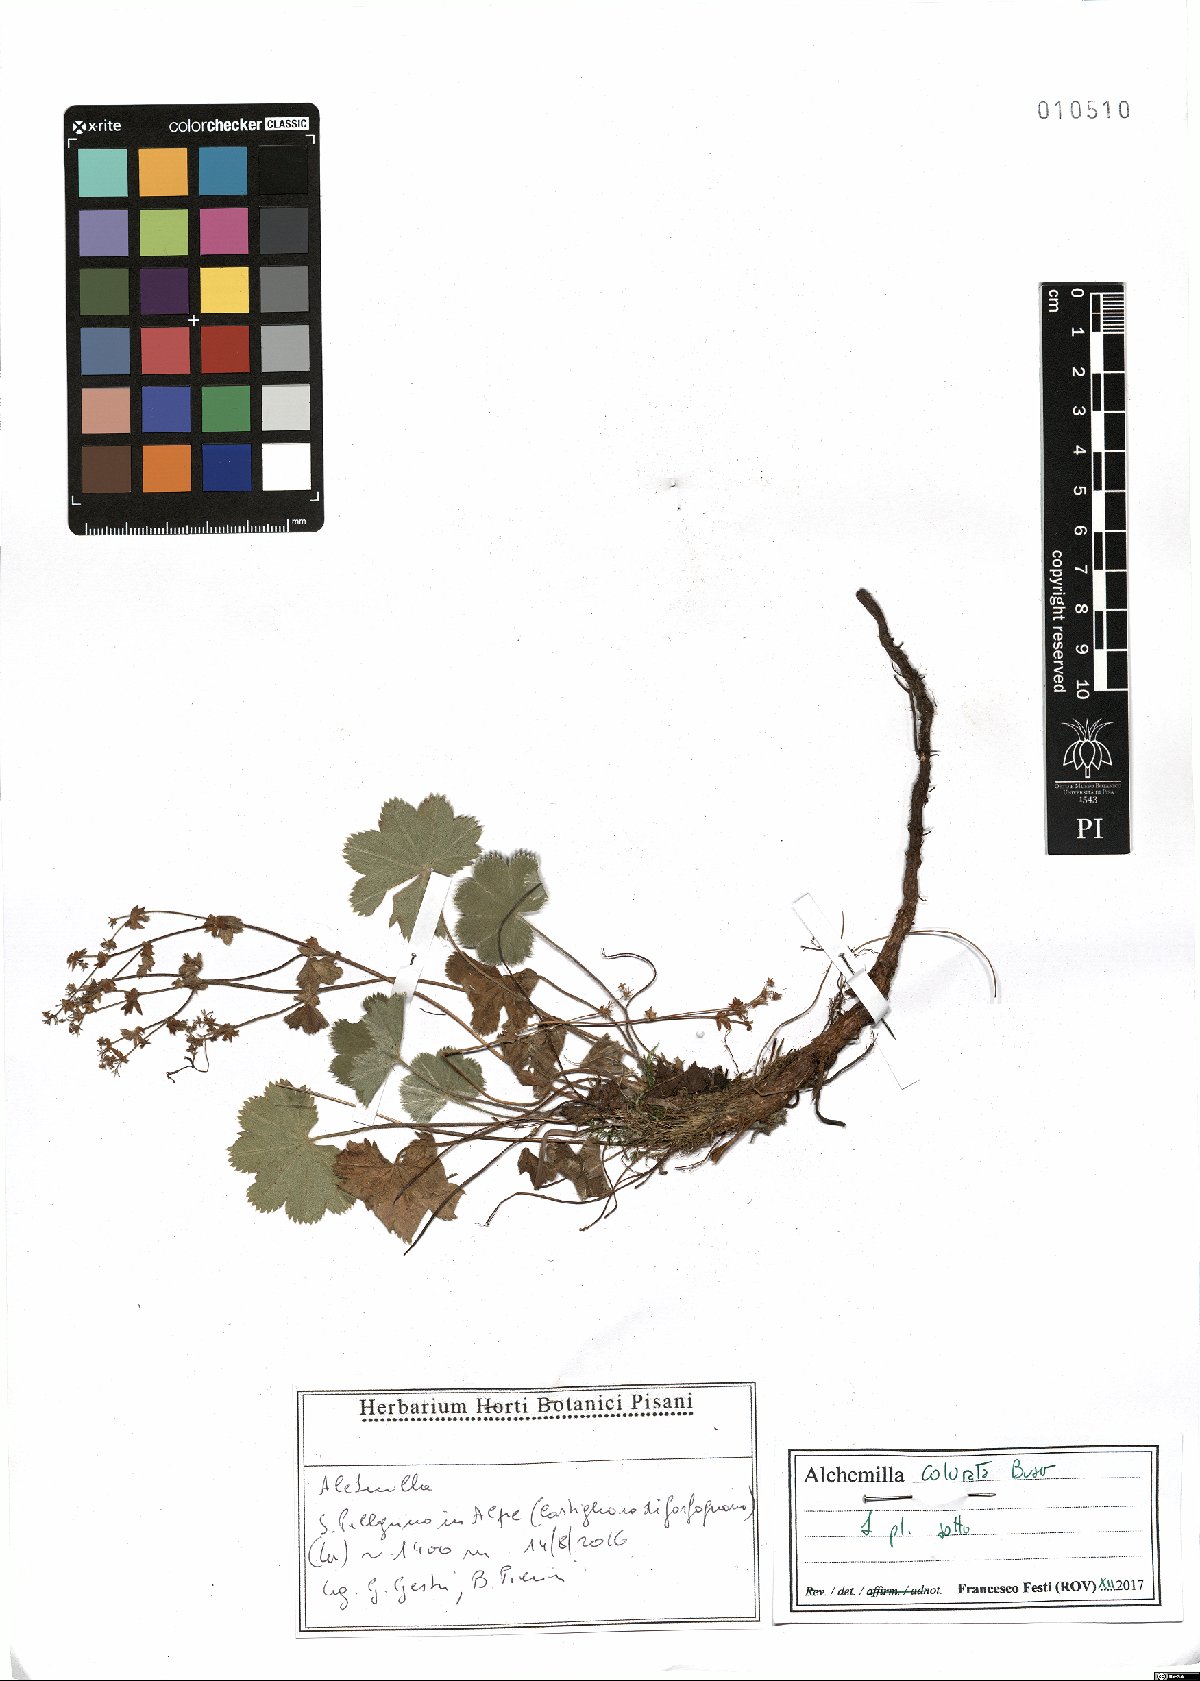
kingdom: Plantae
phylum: Tracheophyta
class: Magnoliopsida
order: Rosales
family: Rosaceae
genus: Alchemilla
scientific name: Alchemilla colorata
